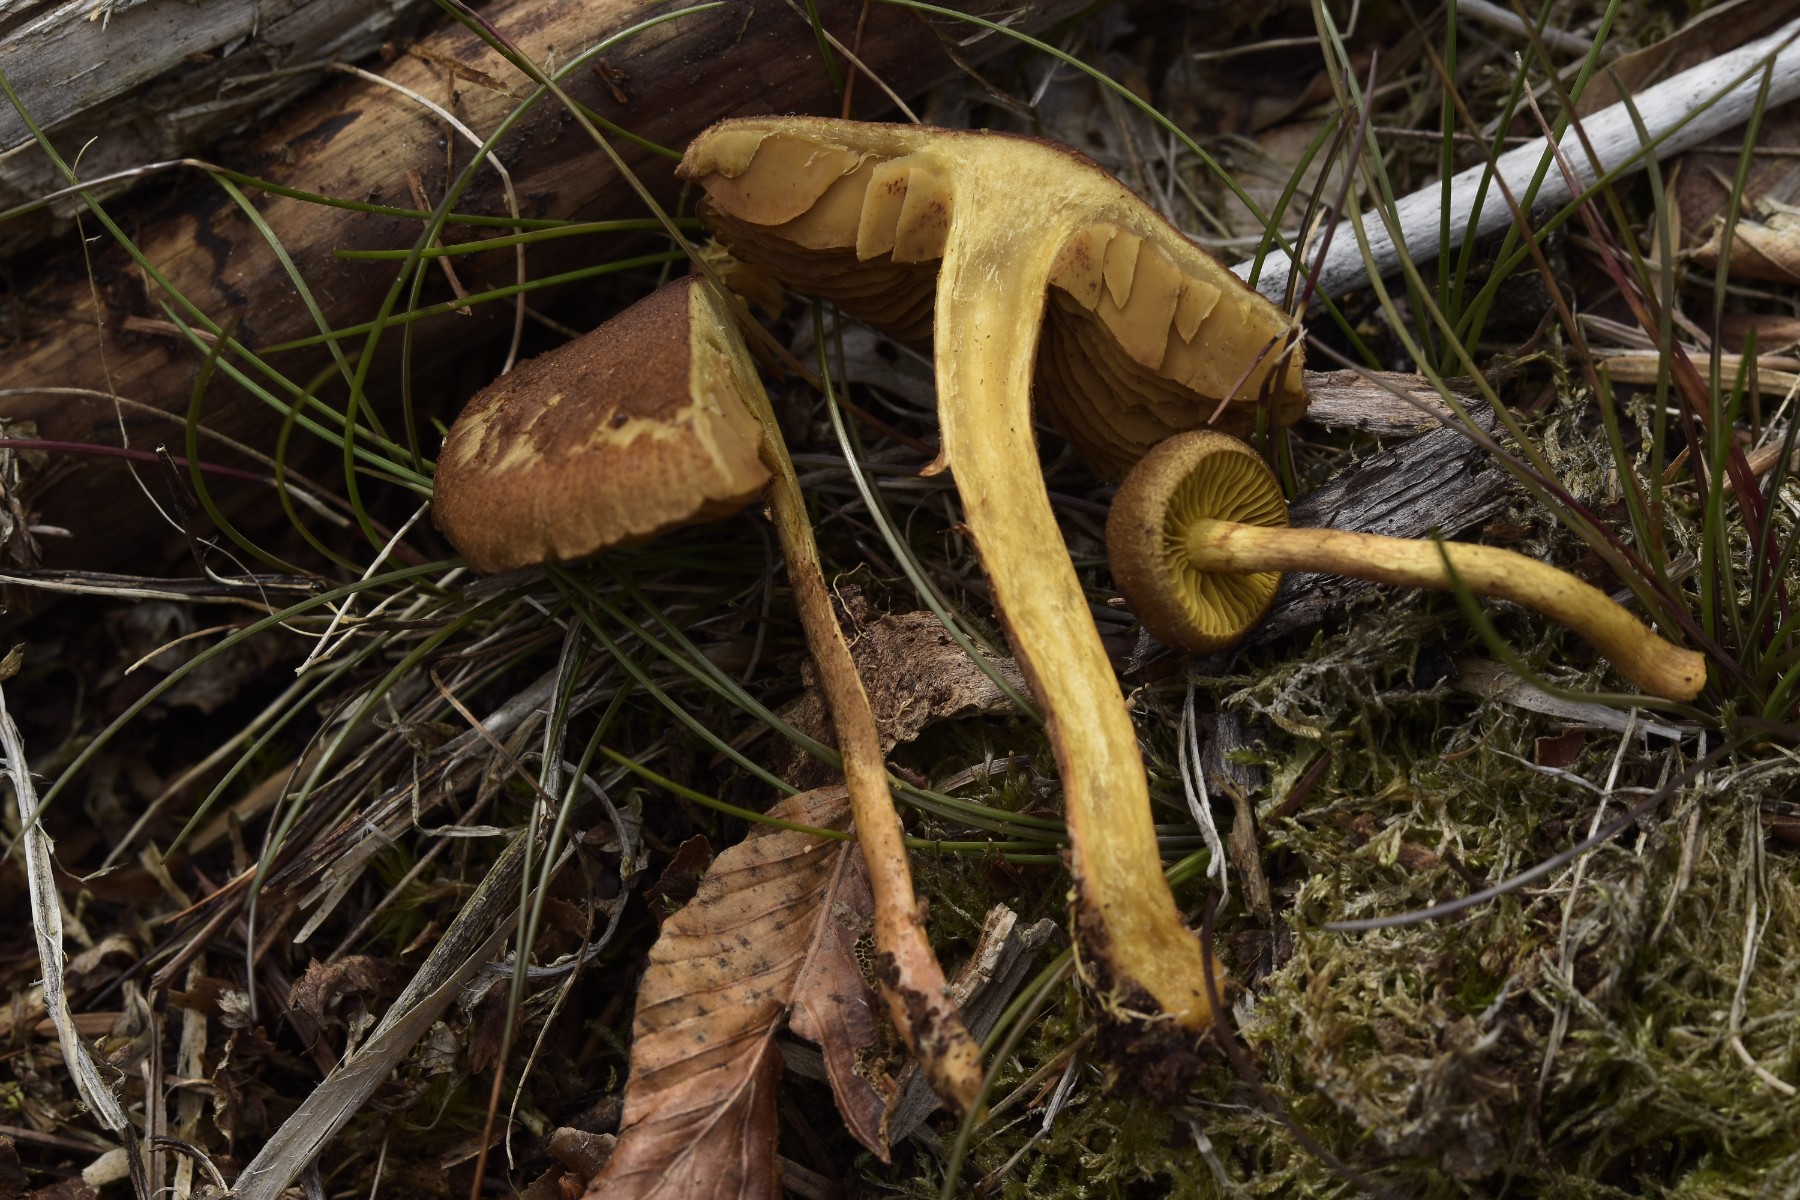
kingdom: Fungi
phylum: Basidiomycota
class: Agaricomycetes
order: Agaricales
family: Cortinariaceae
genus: Cortinarius
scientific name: Cortinarius
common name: gulbladet slørhat
